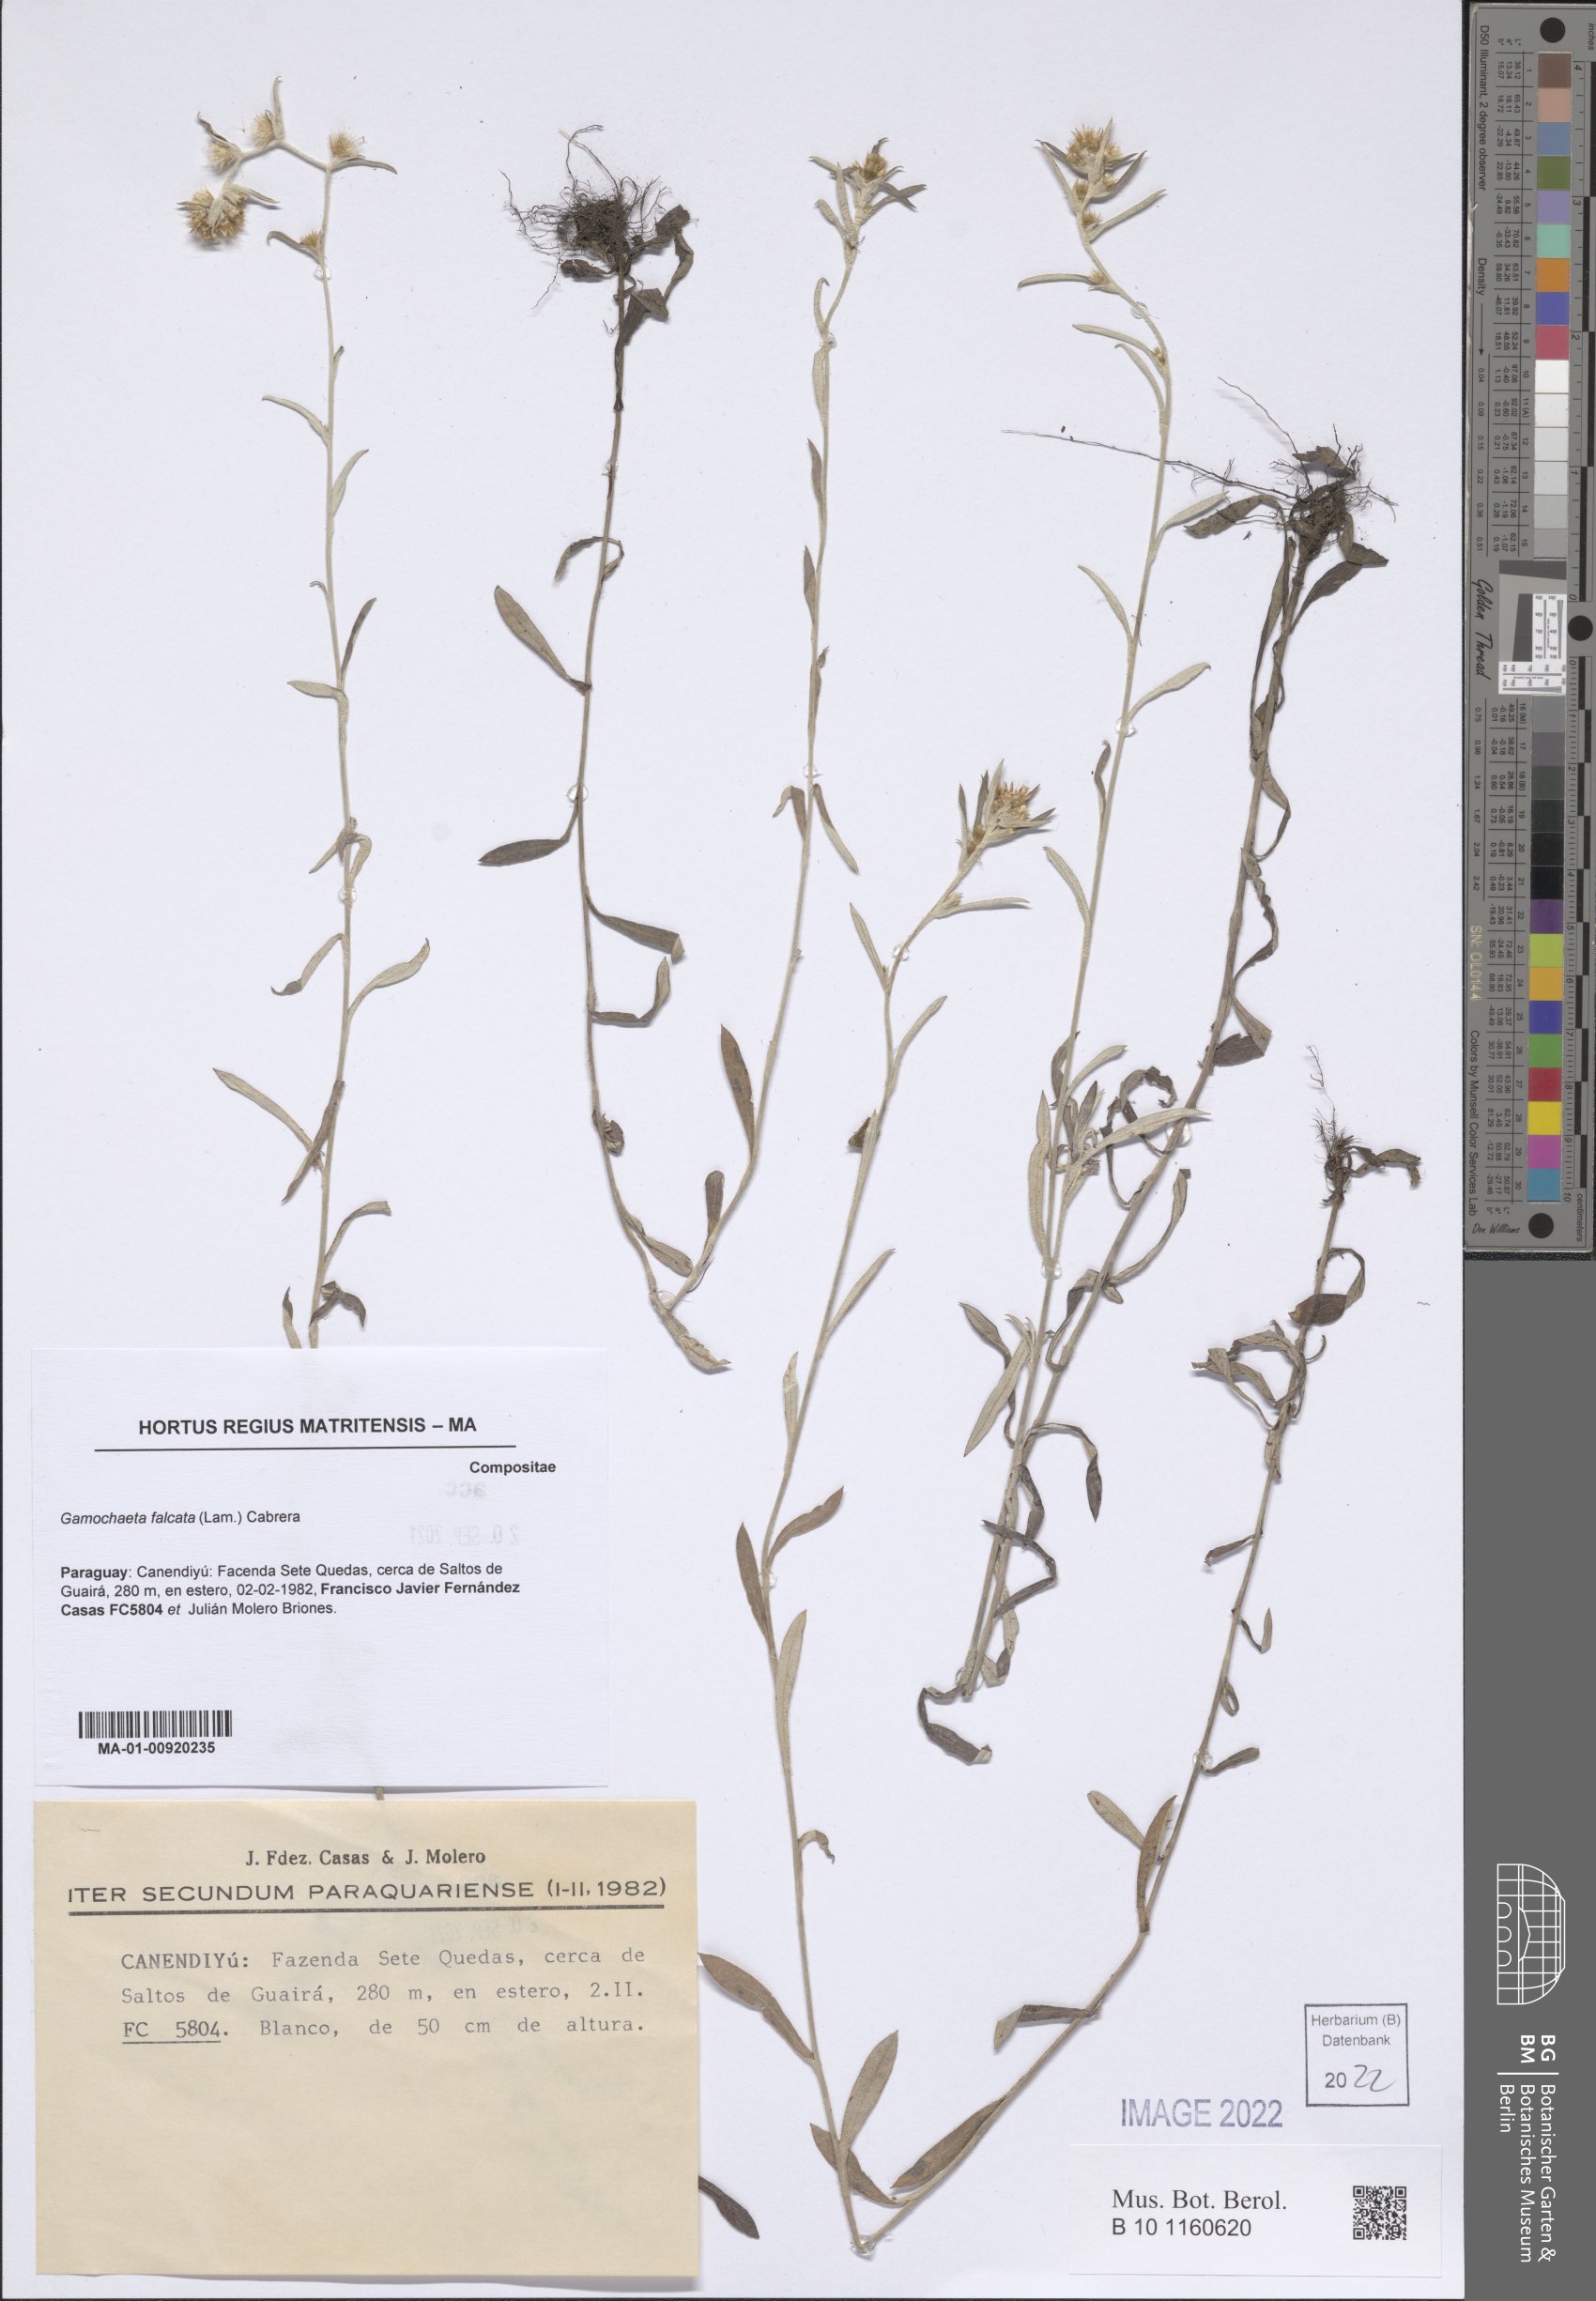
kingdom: Plantae
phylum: Tracheophyta
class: Magnoliopsida
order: Asterales
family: Asteraceae
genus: Gamochaeta
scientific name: Gamochaeta falcata
